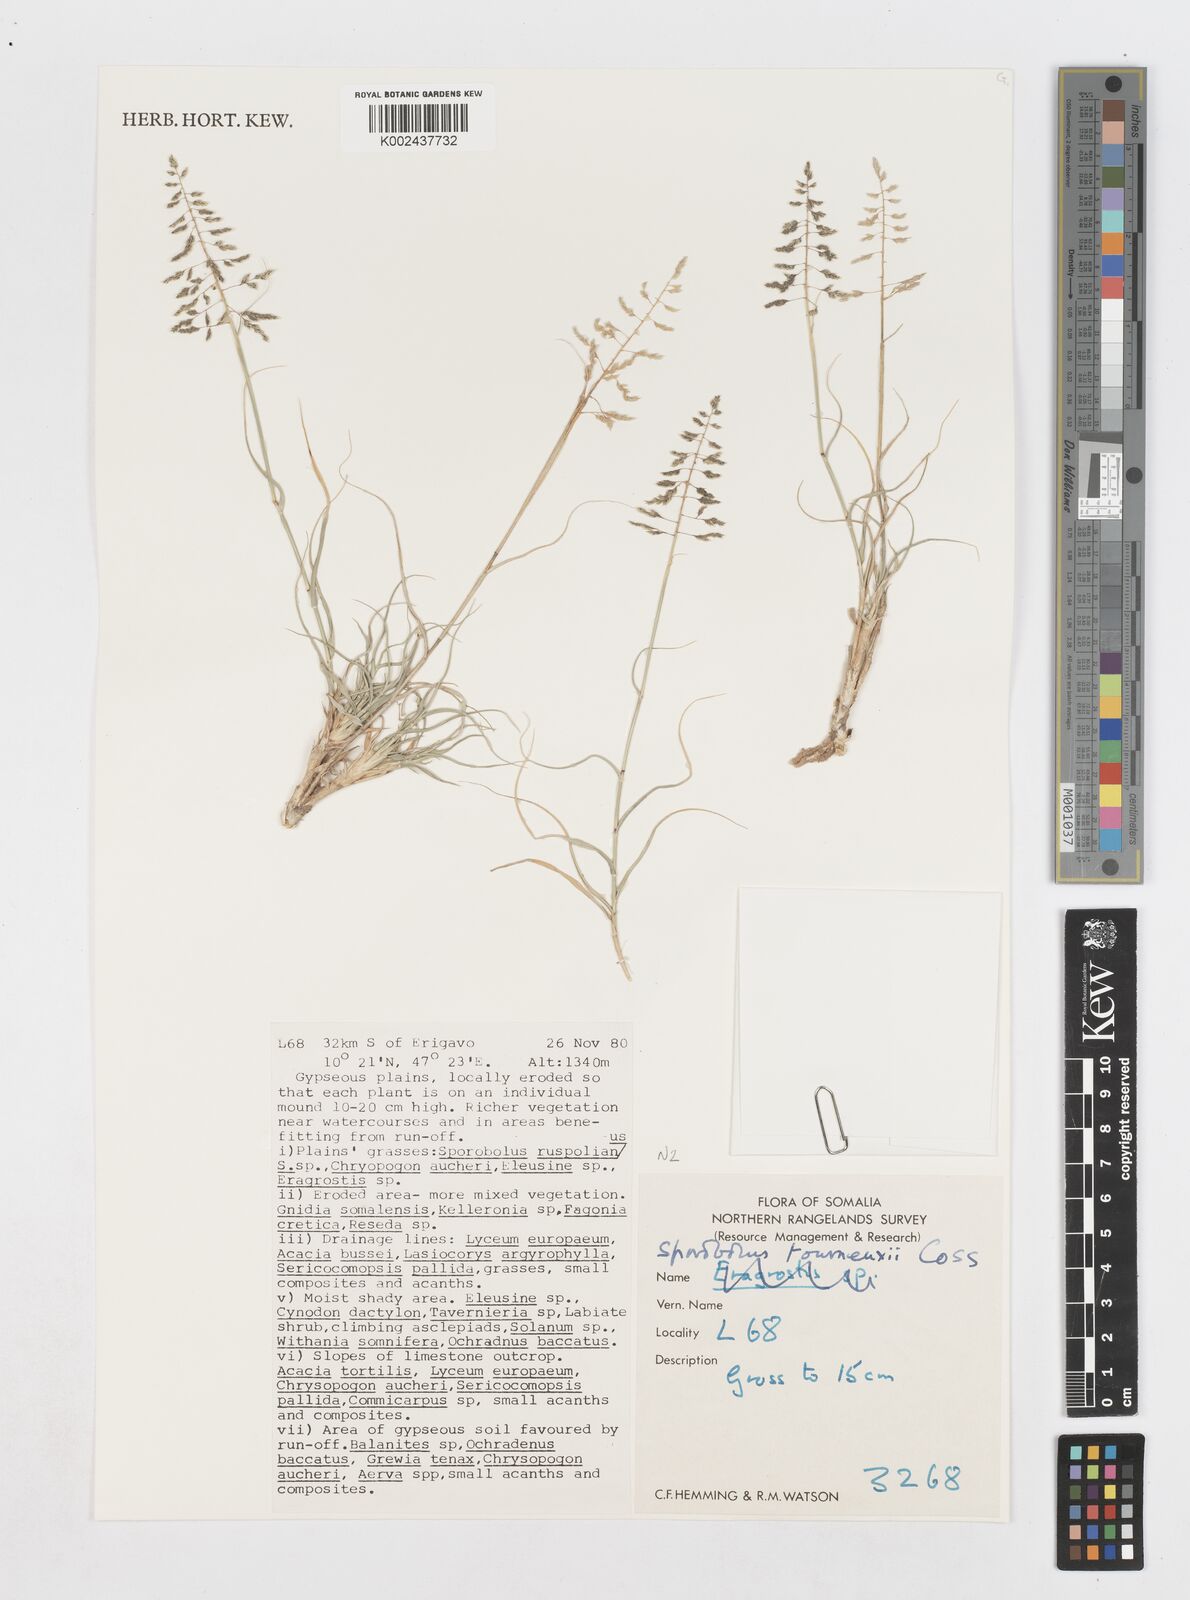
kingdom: Plantae
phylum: Tracheophyta
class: Liliopsida
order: Poales
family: Poaceae
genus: Sporobolus
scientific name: Sporobolus tourneuxii
